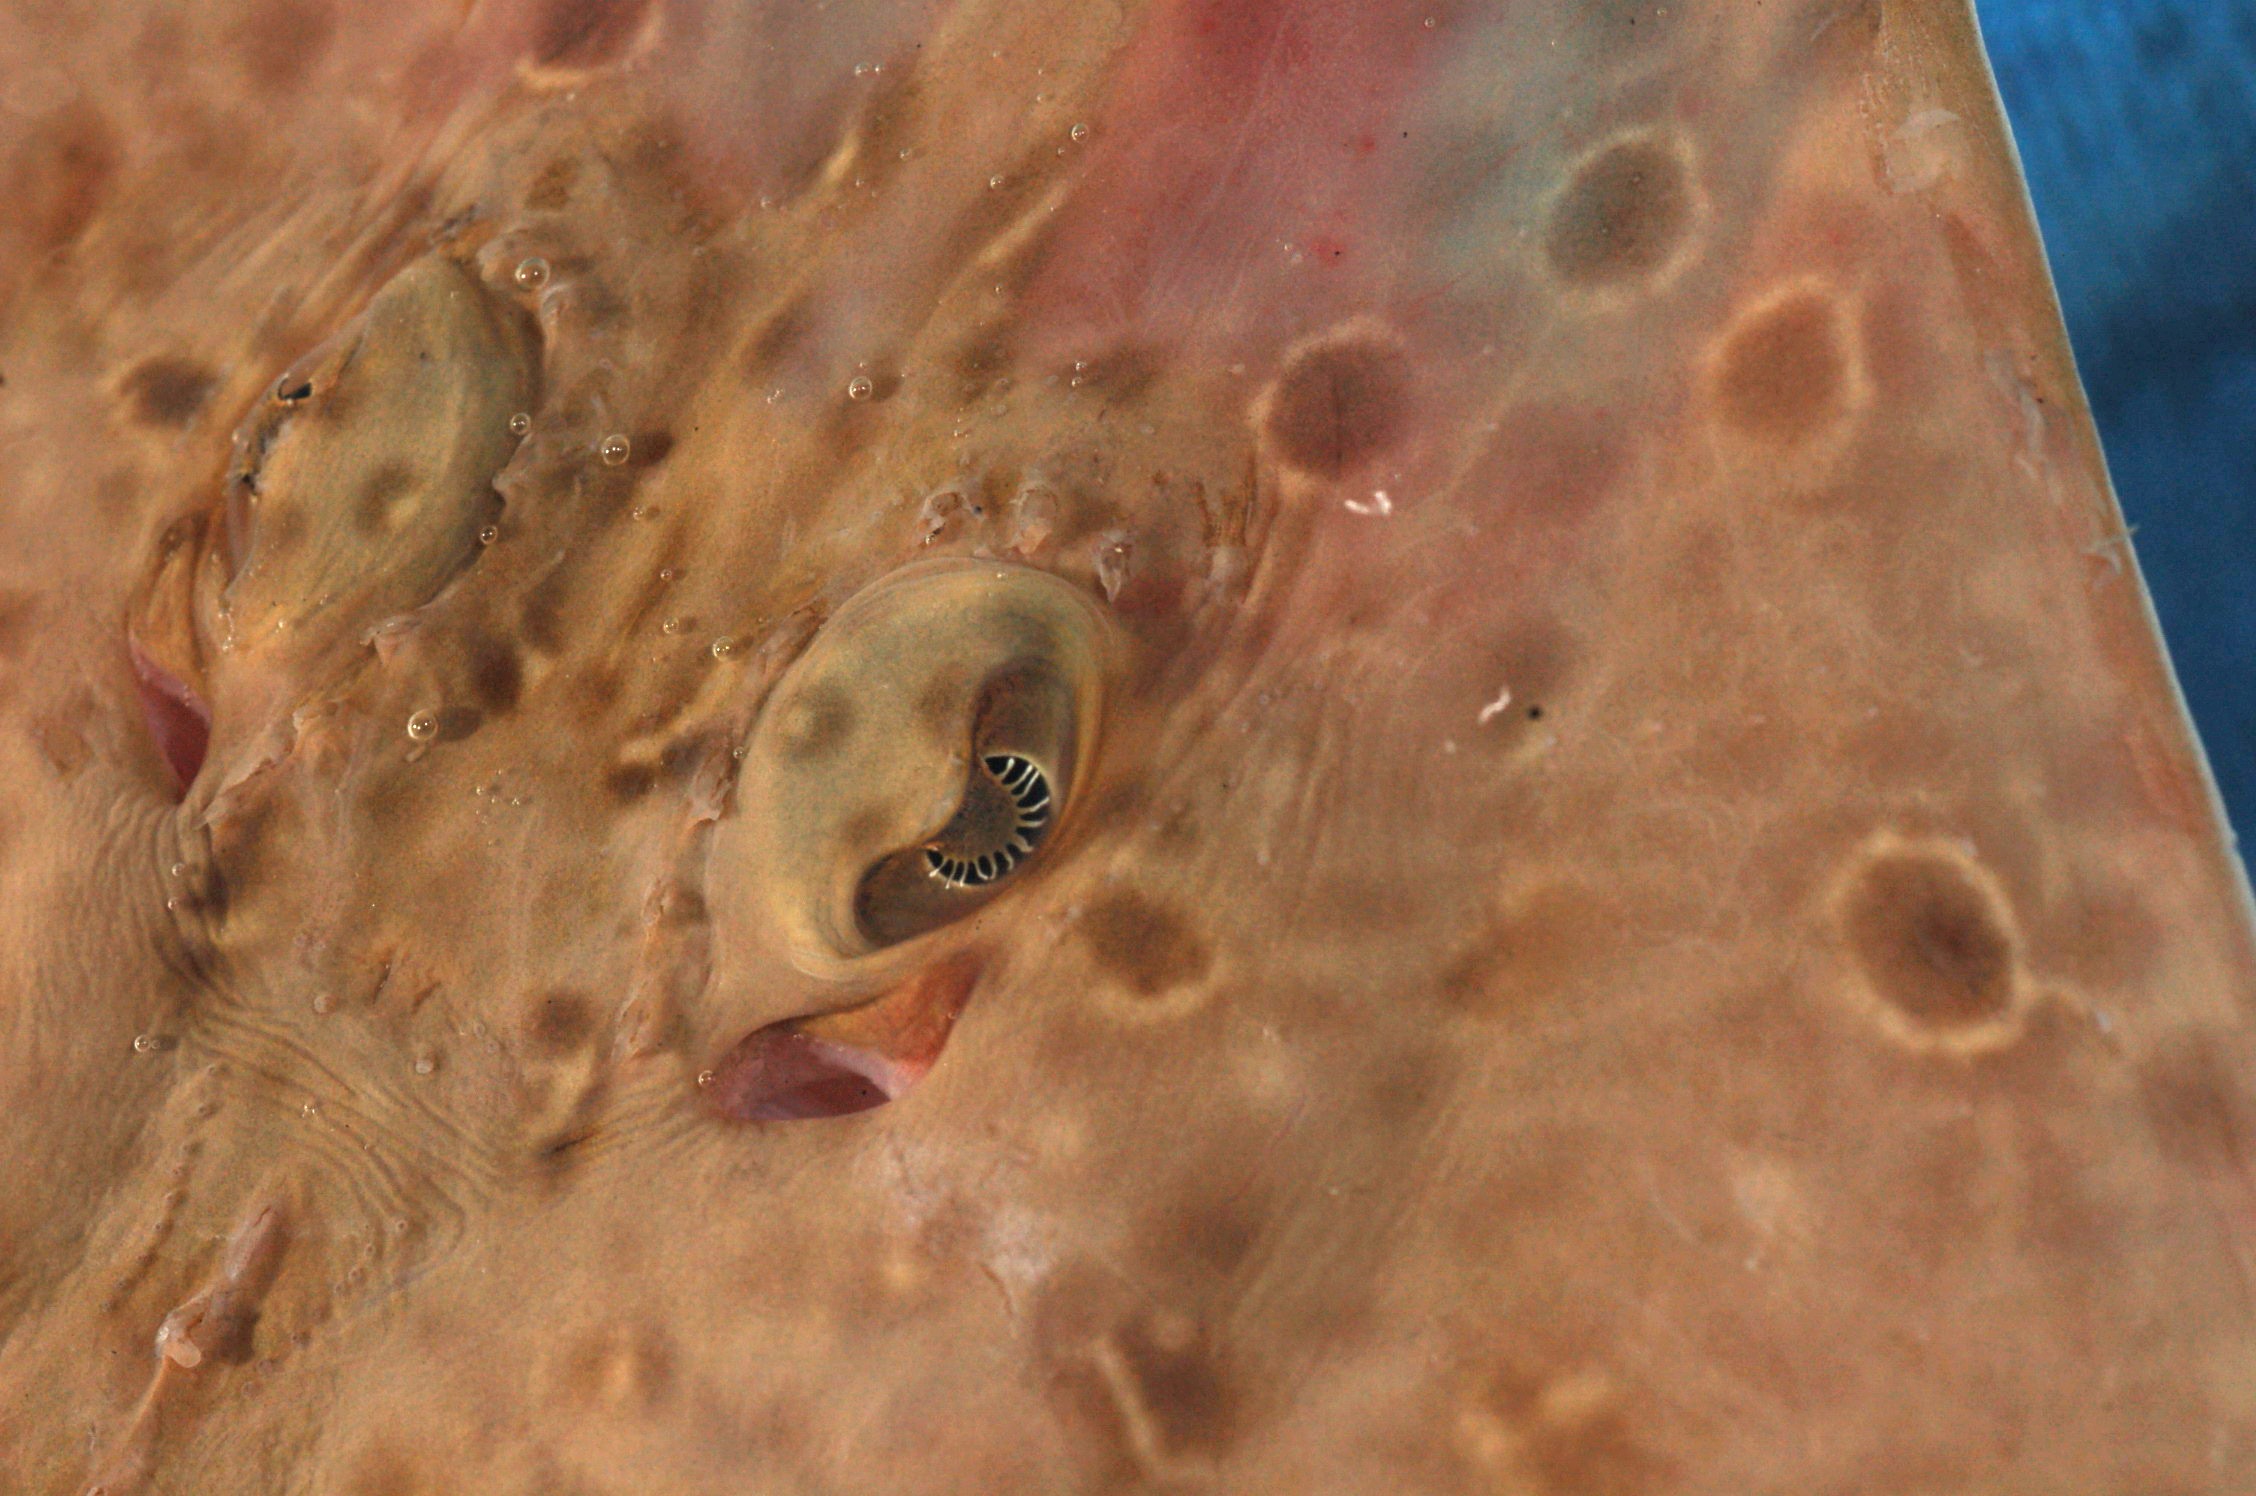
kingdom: Animalia
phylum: Chordata
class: Elasmobranchii
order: Rajiformes
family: Rajidae
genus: Dipturus
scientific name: Dipturus lanceorostratus
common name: Rattail skate
